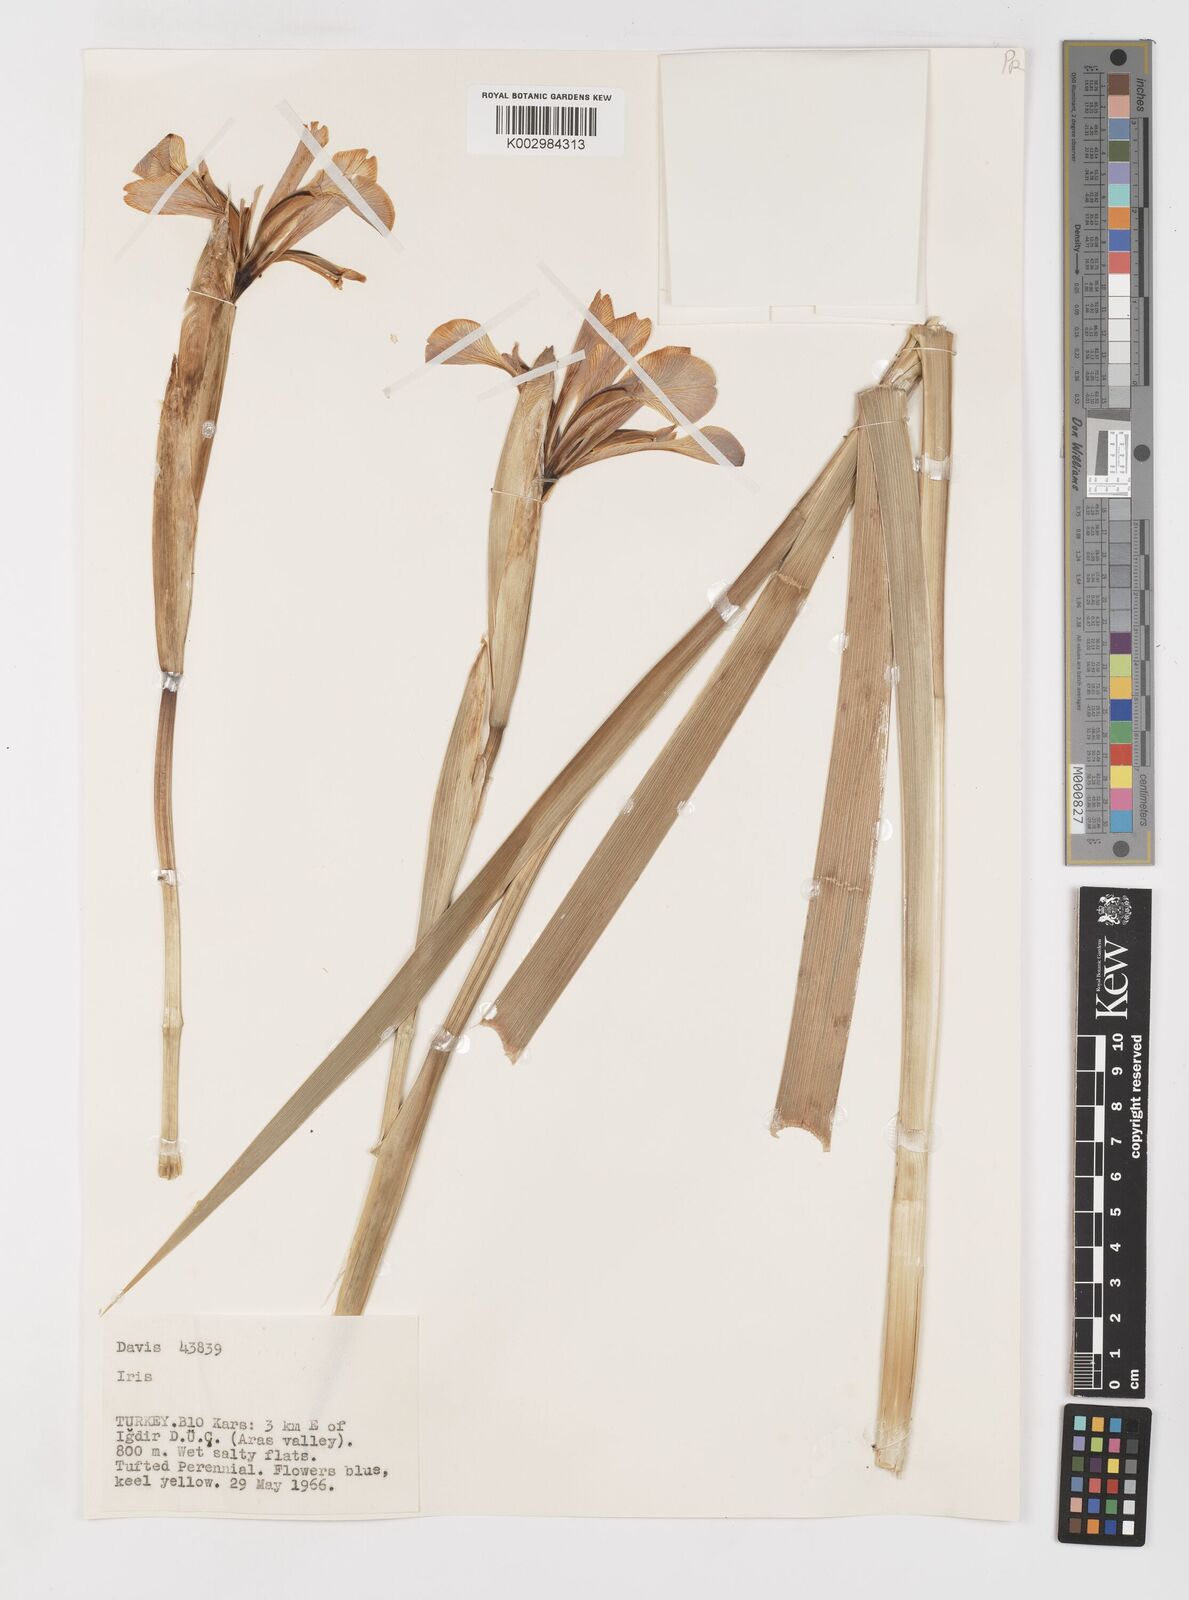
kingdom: Plantae
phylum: Tracheophyta
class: Liliopsida
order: Asparagales
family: Iridaceae
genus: Iris
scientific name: Iris spuria
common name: Blue iris
